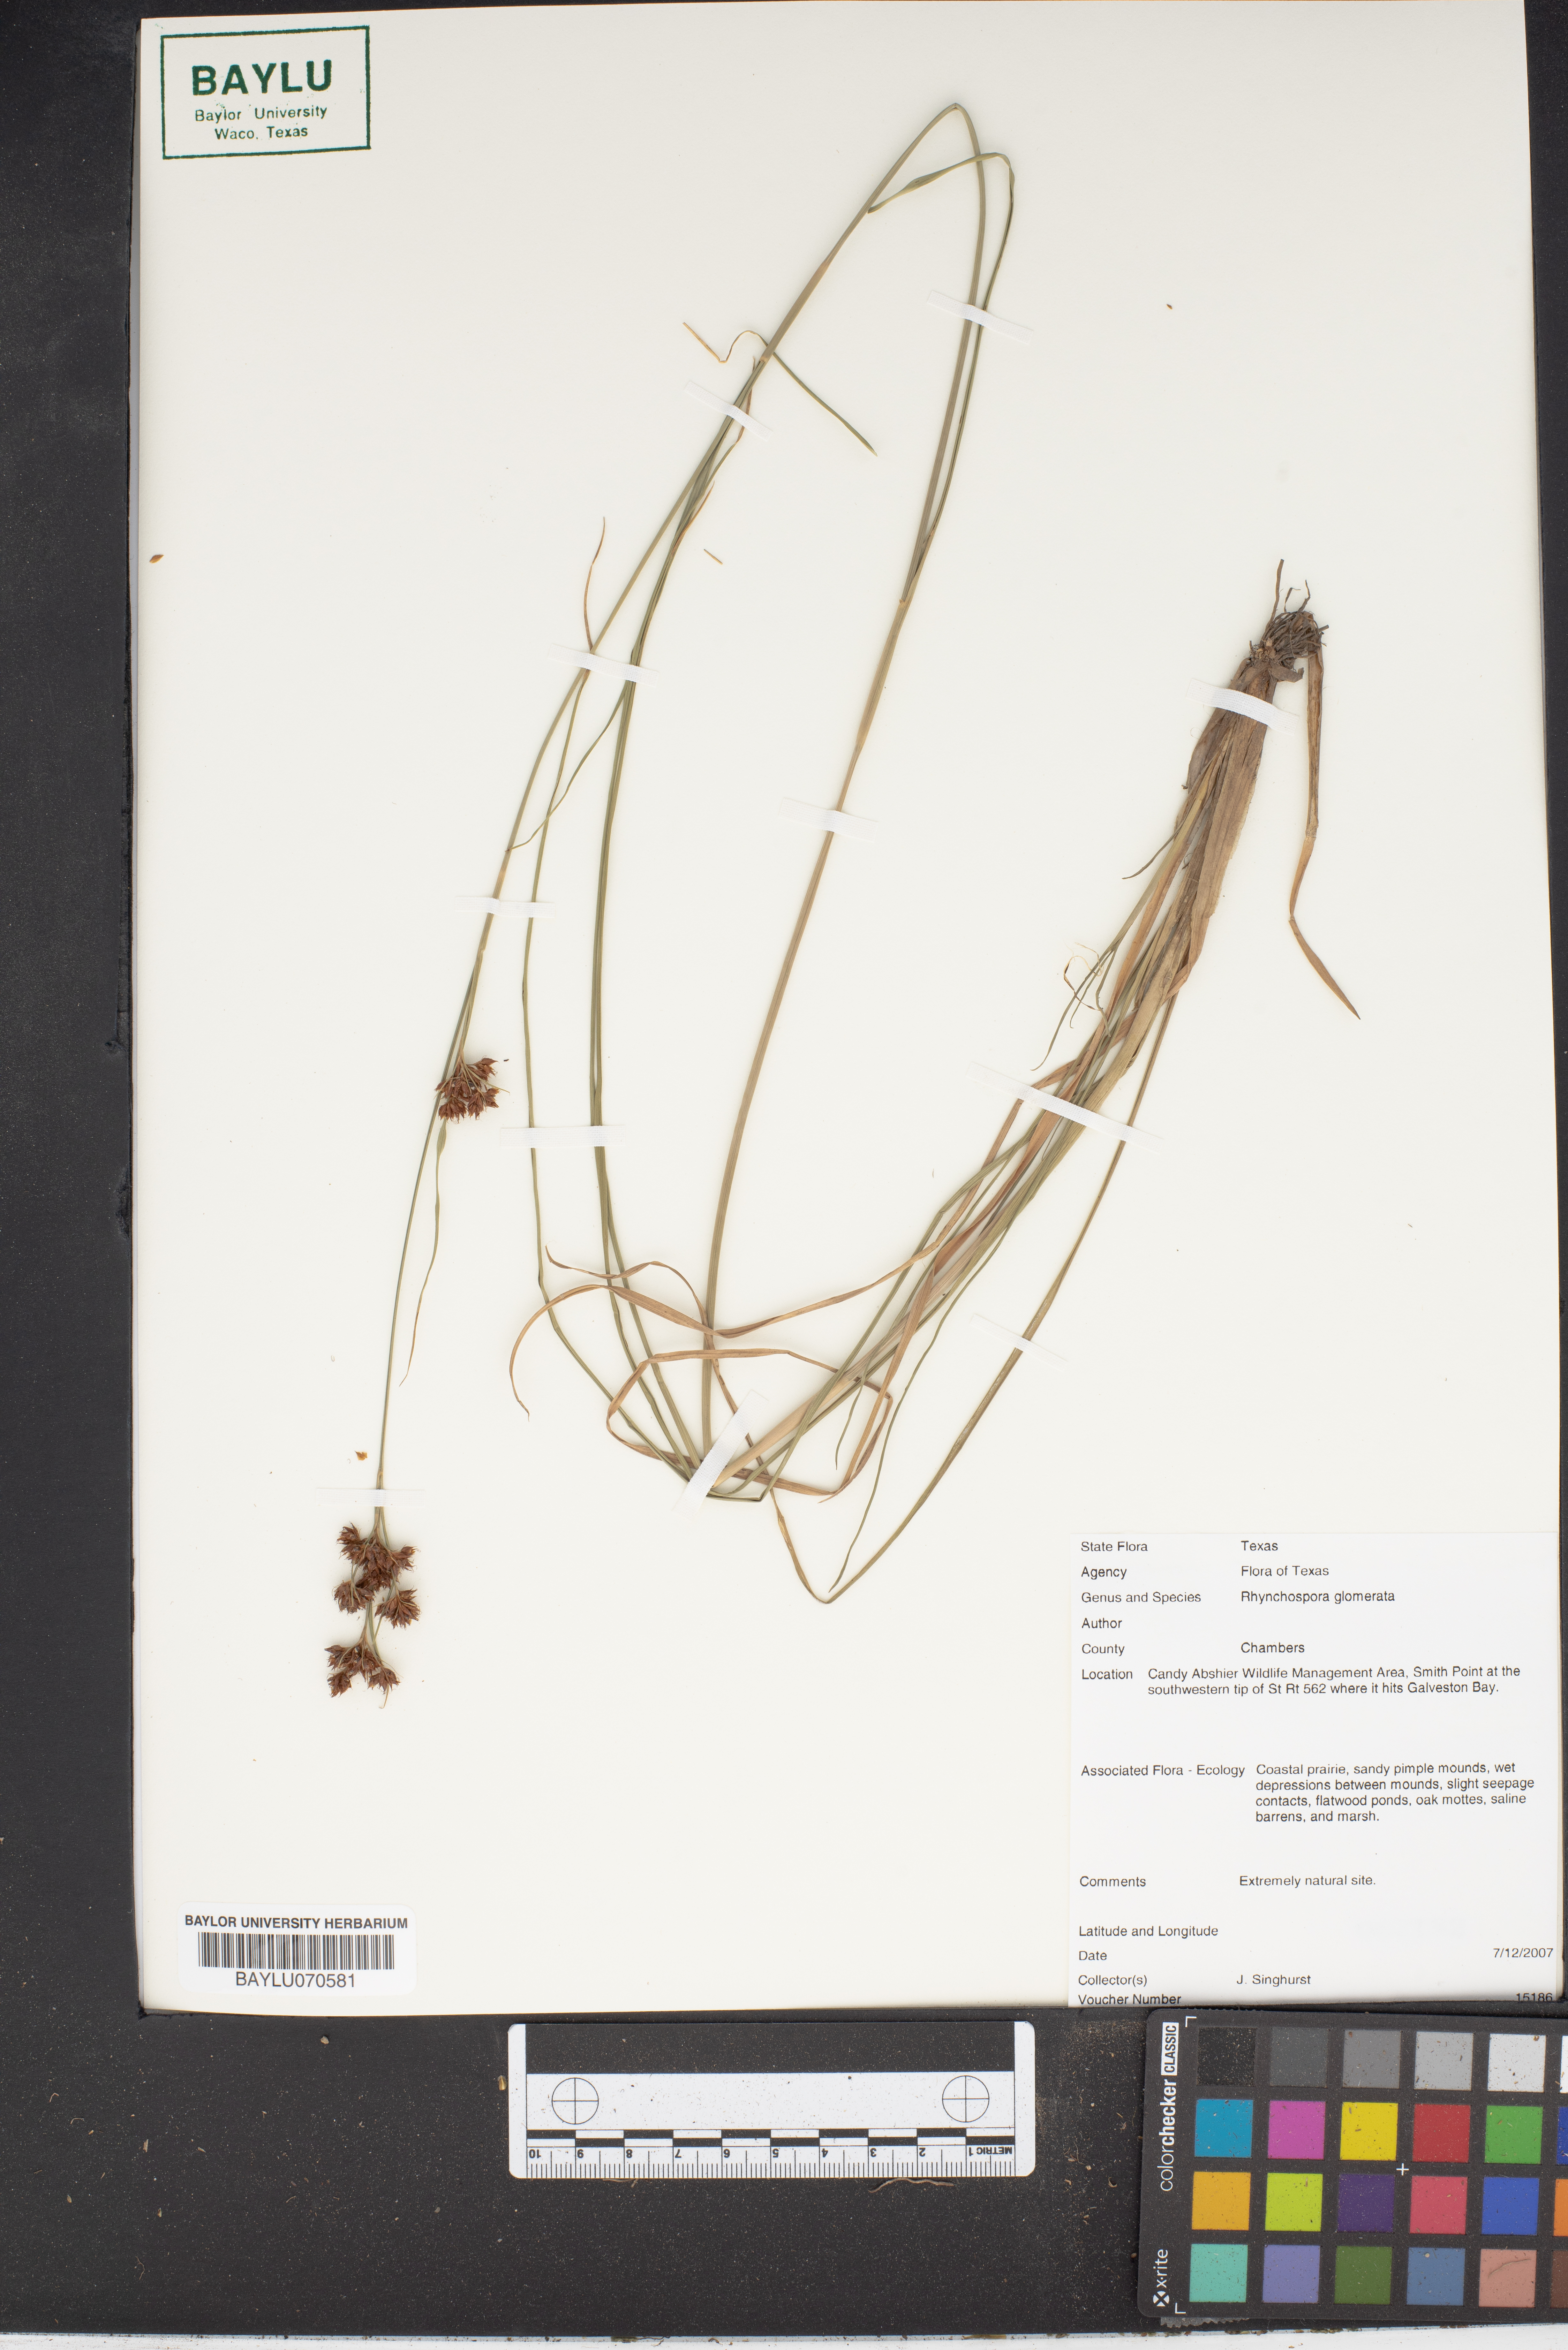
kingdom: Plantae
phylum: Tracheophyta
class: Liliopsida
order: Poales
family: Cyperaceae
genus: Rhynchospora
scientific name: Rhynchospora glomerata
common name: Cluster beak sedge
